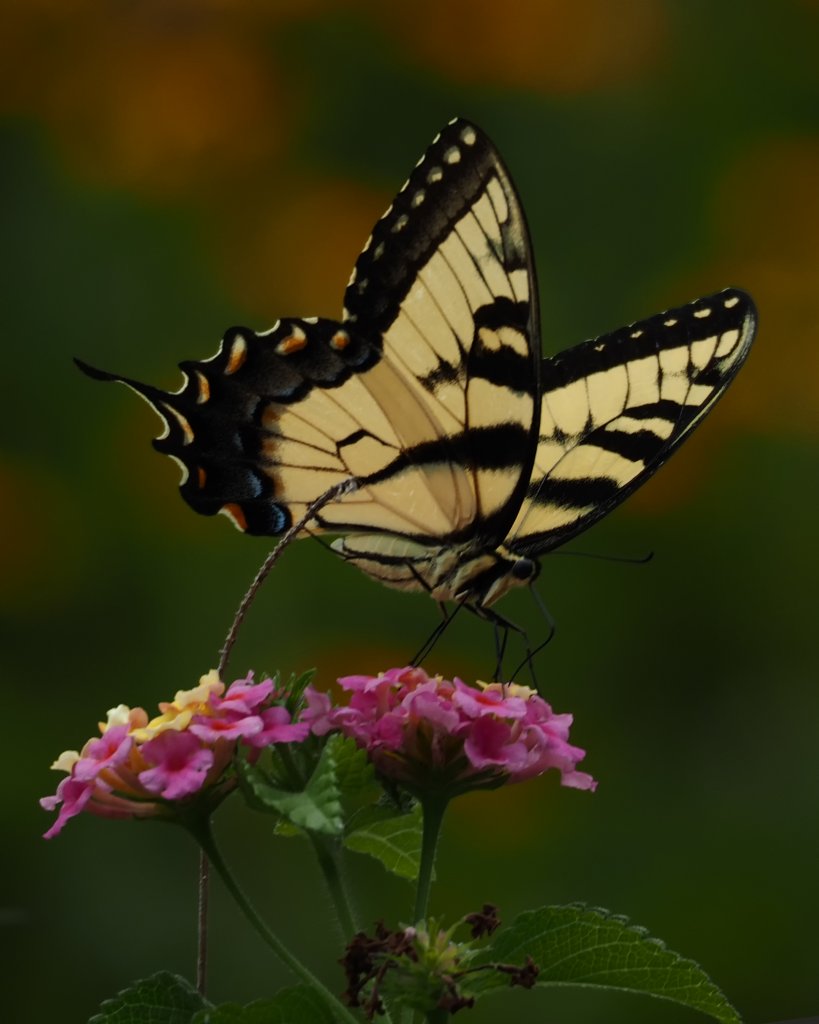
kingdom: Animalia
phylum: Arthropoda
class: Insecta
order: Lepidoptera
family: Papilionidae
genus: Pterourus
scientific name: Pterourus glaucus
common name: Eastern Tiger Swallowtail
